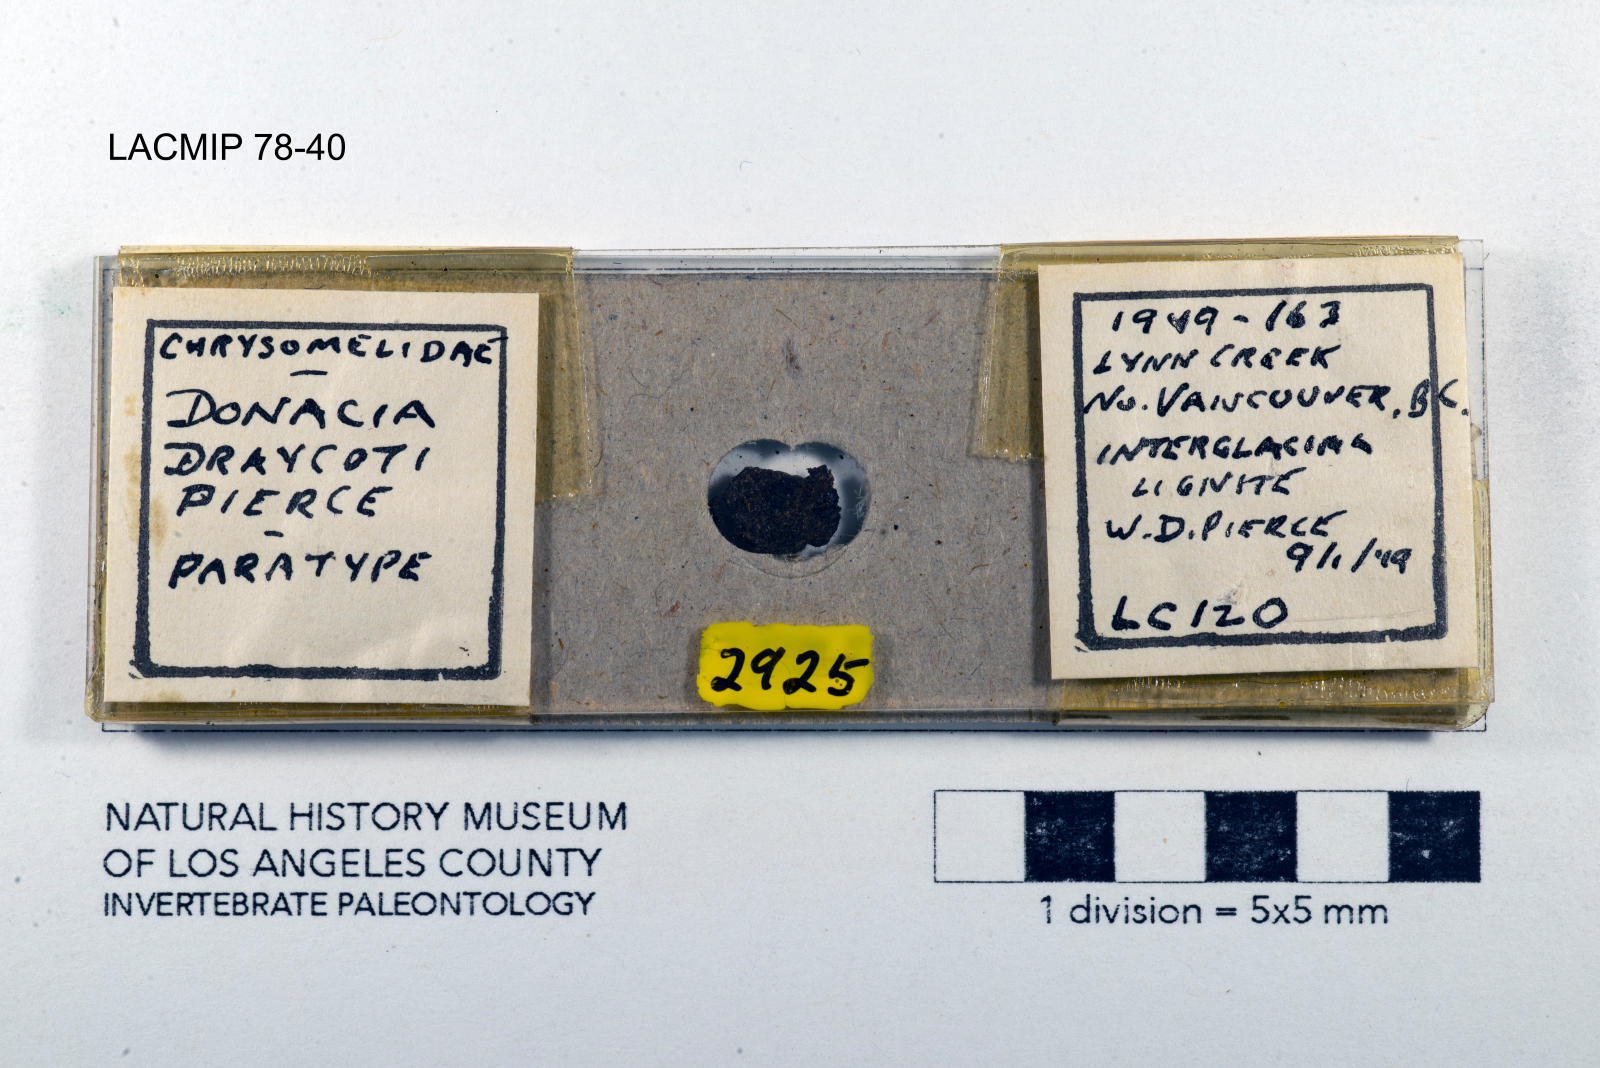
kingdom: Animalia
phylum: Arthropoda
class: Insecta
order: Coleoptera
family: Chrysomelidae
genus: Donacia
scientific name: Donacia draycoti
